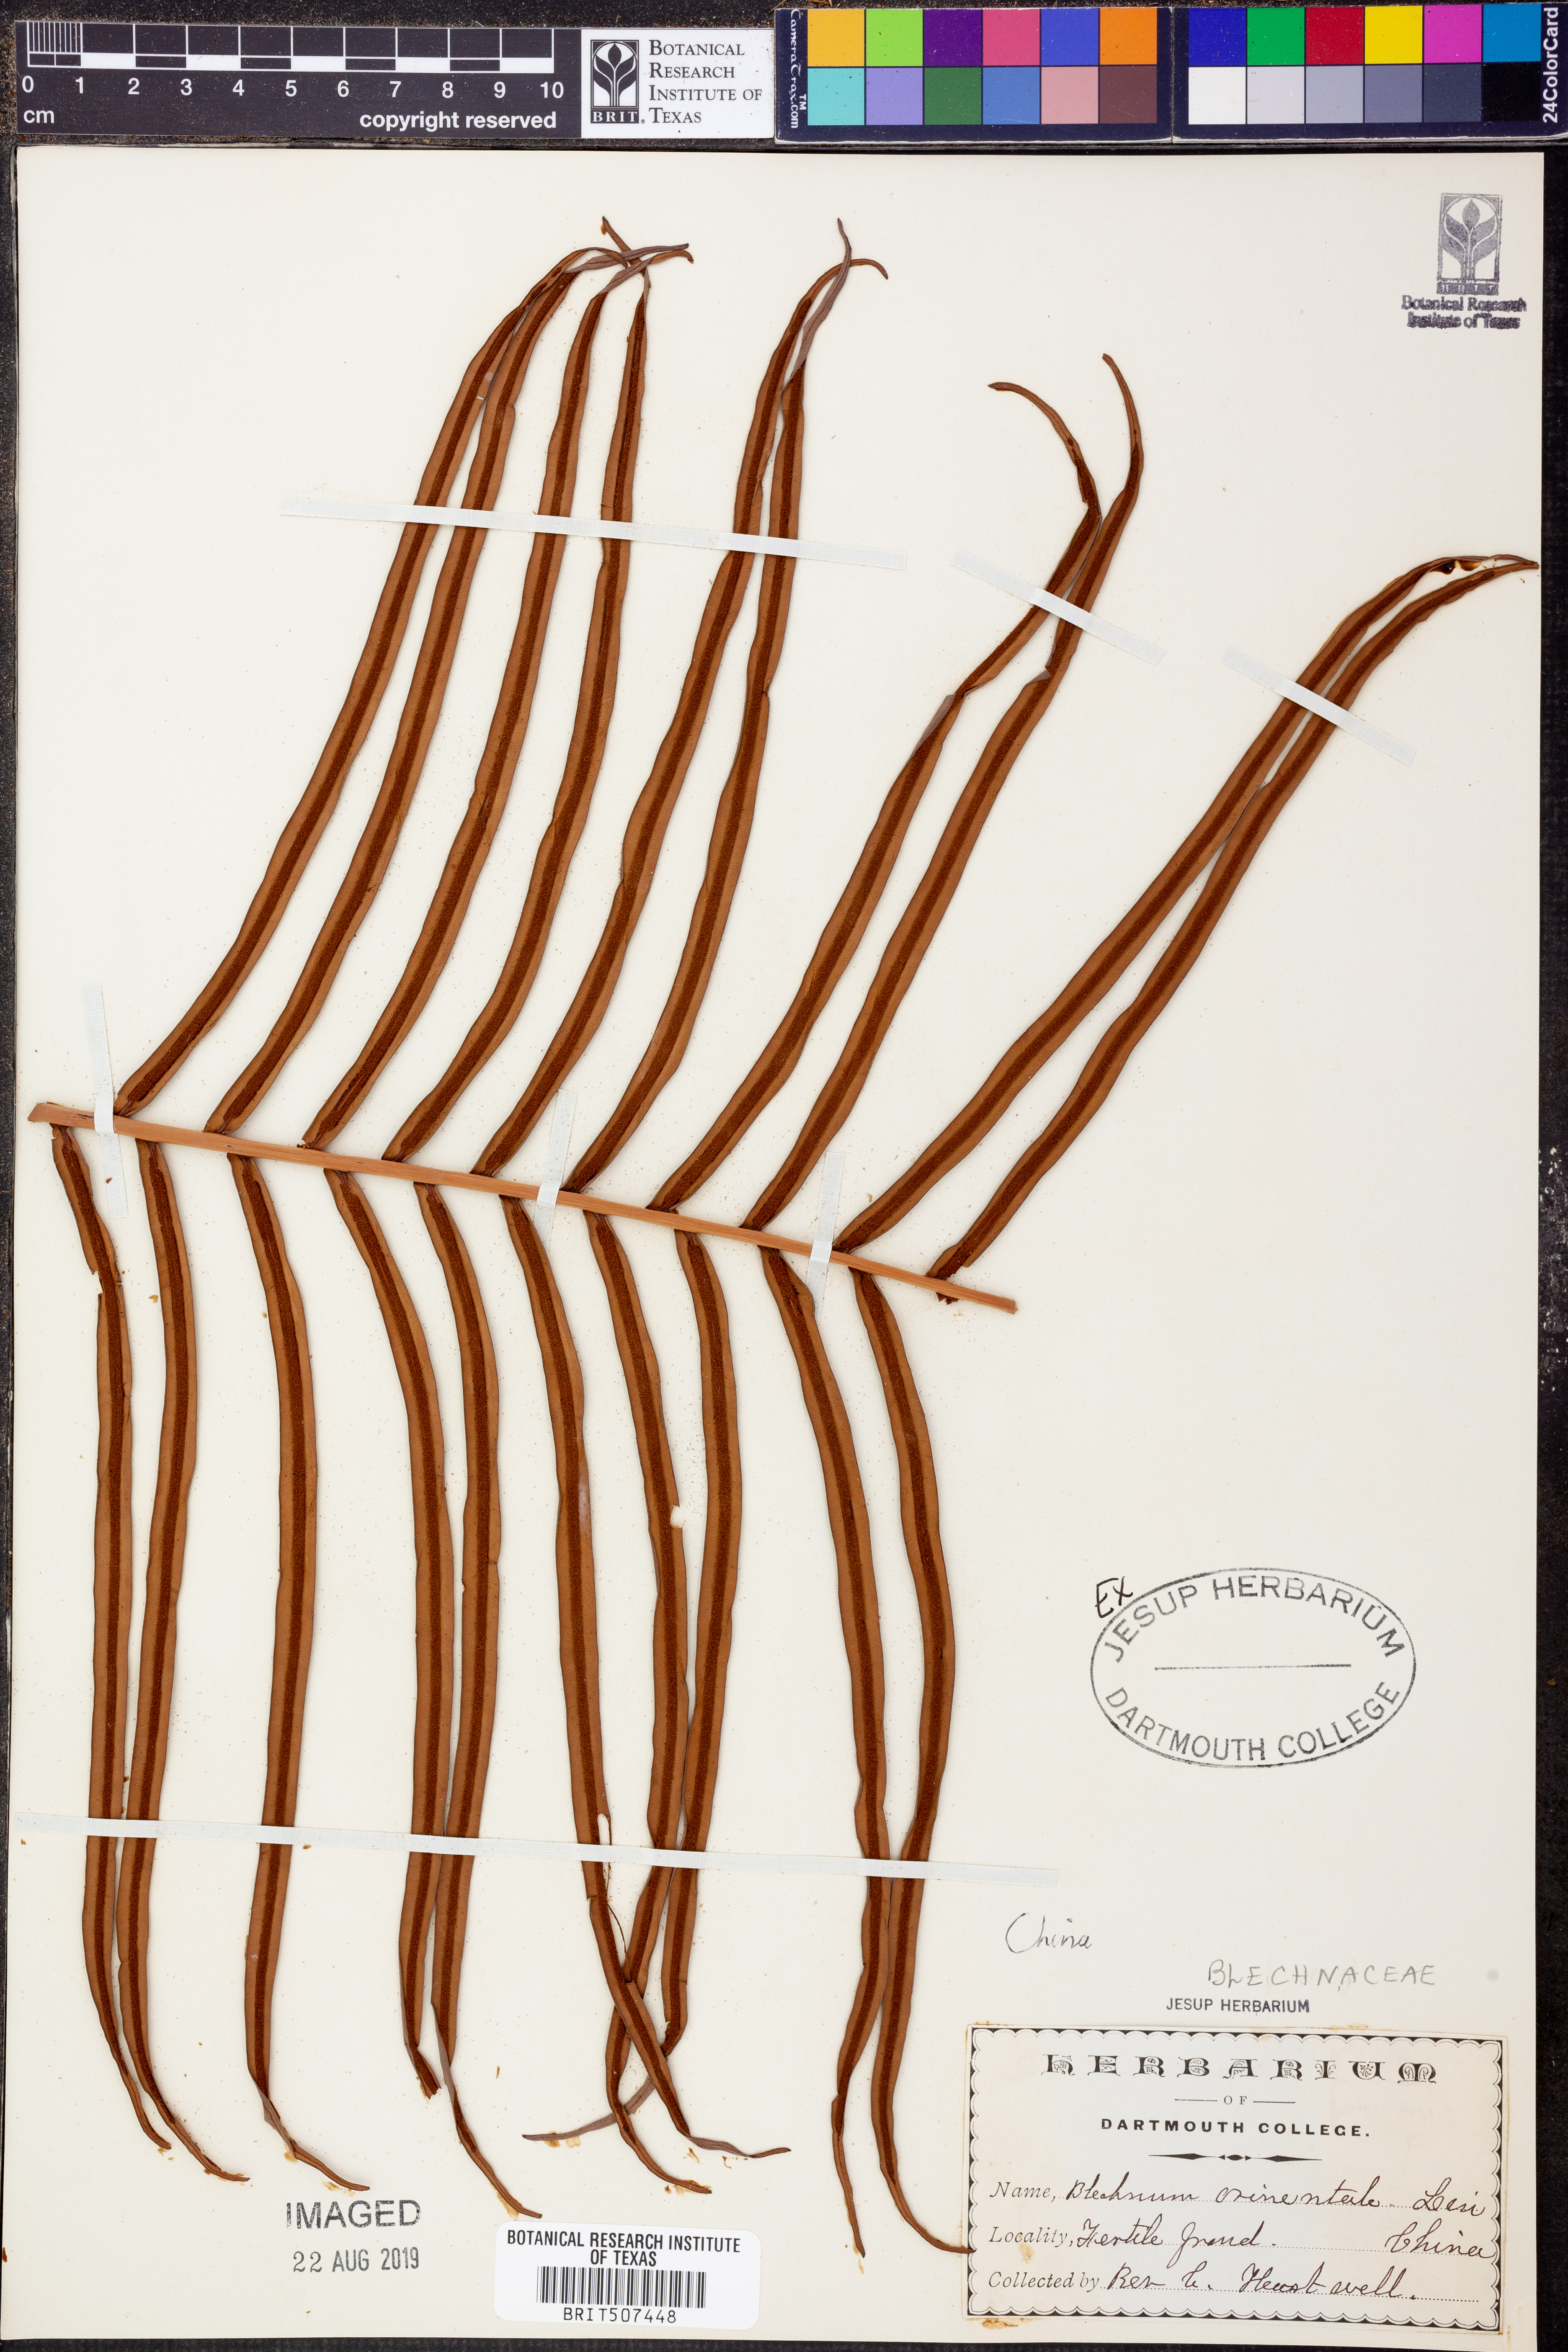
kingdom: Plantae
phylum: Tracheophyta
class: Polypodiopsida
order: Polypodiales
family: Blechnaceae
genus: Blechnopsis
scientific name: Blechnopsis orientalis
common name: Oriental blechnum
